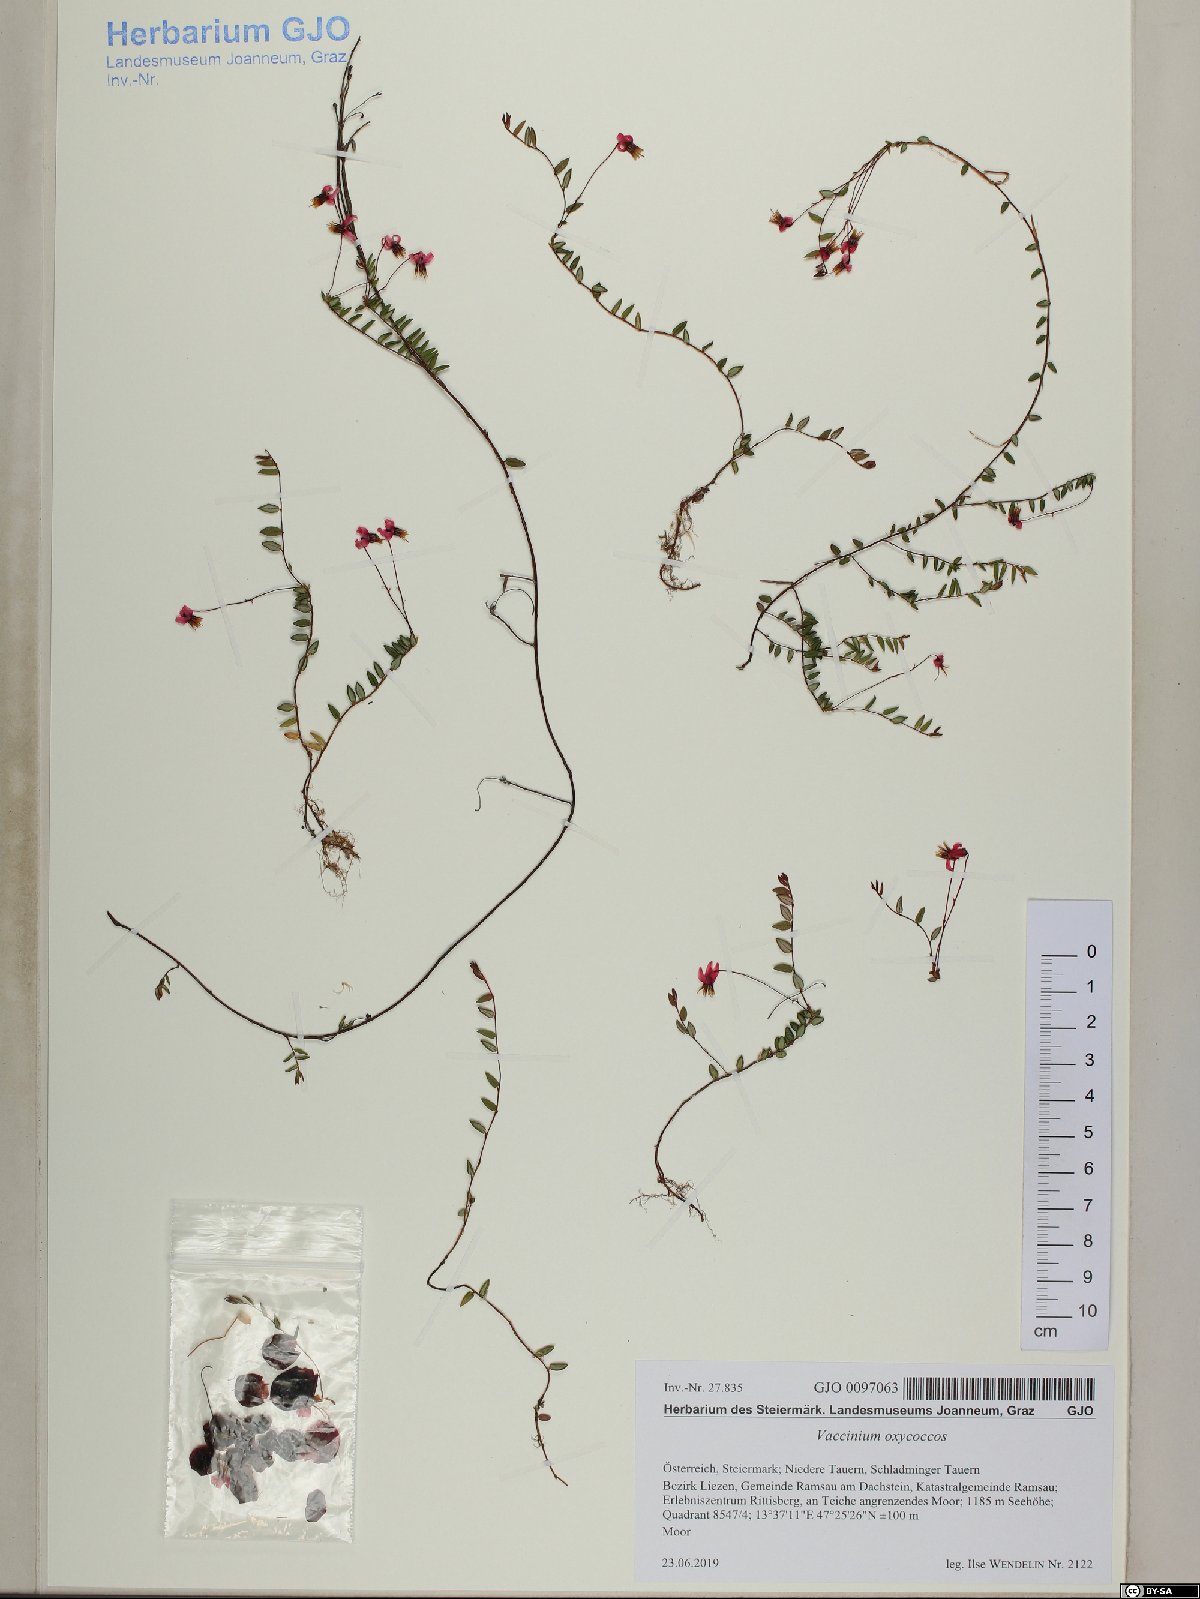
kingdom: Plantae
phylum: Tracheophyta
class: Magnoliopsida
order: Ericales
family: Ericaceae
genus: Vaccinium
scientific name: Vaccinium oxycoccos
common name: Cranberry
